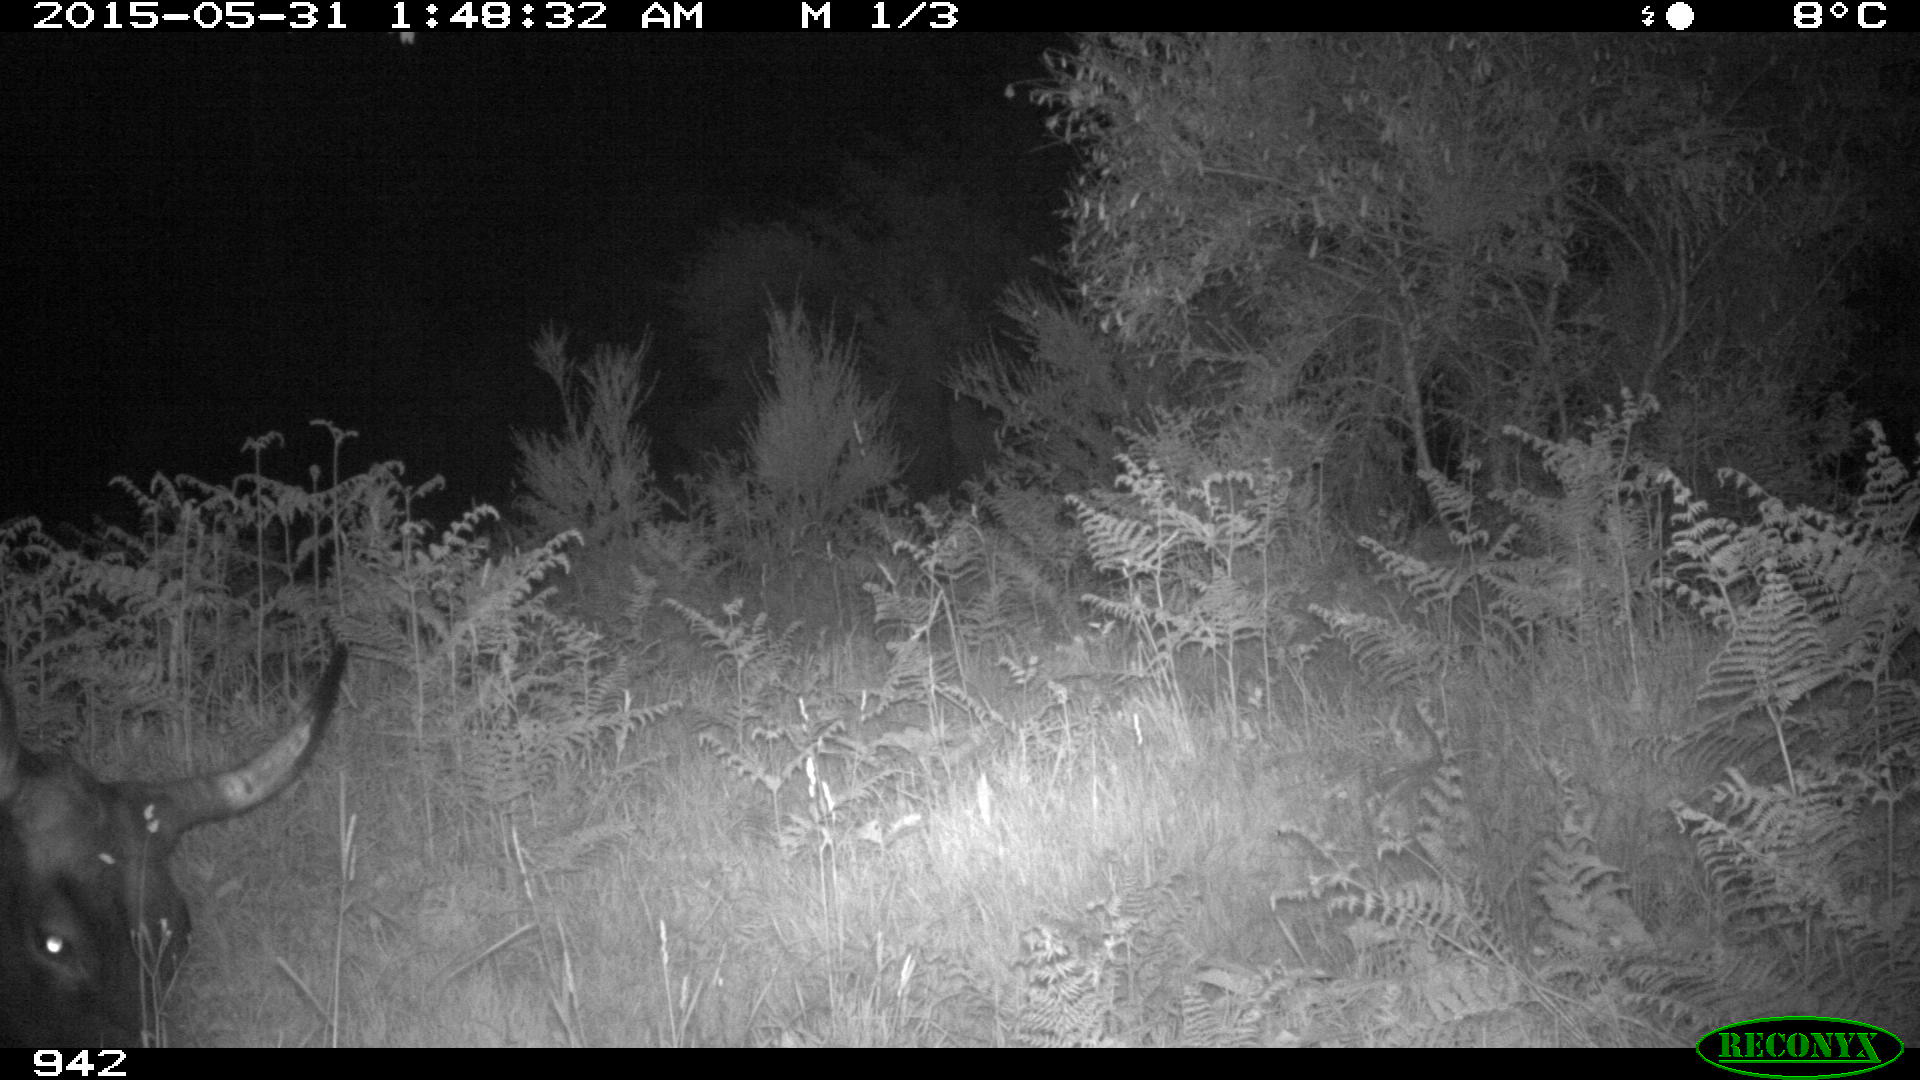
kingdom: Animalia
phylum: Chordata
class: Mammalia
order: Artiodactyla
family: Bovidae
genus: Bos
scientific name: Bos taurus
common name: Domesticated cattle
